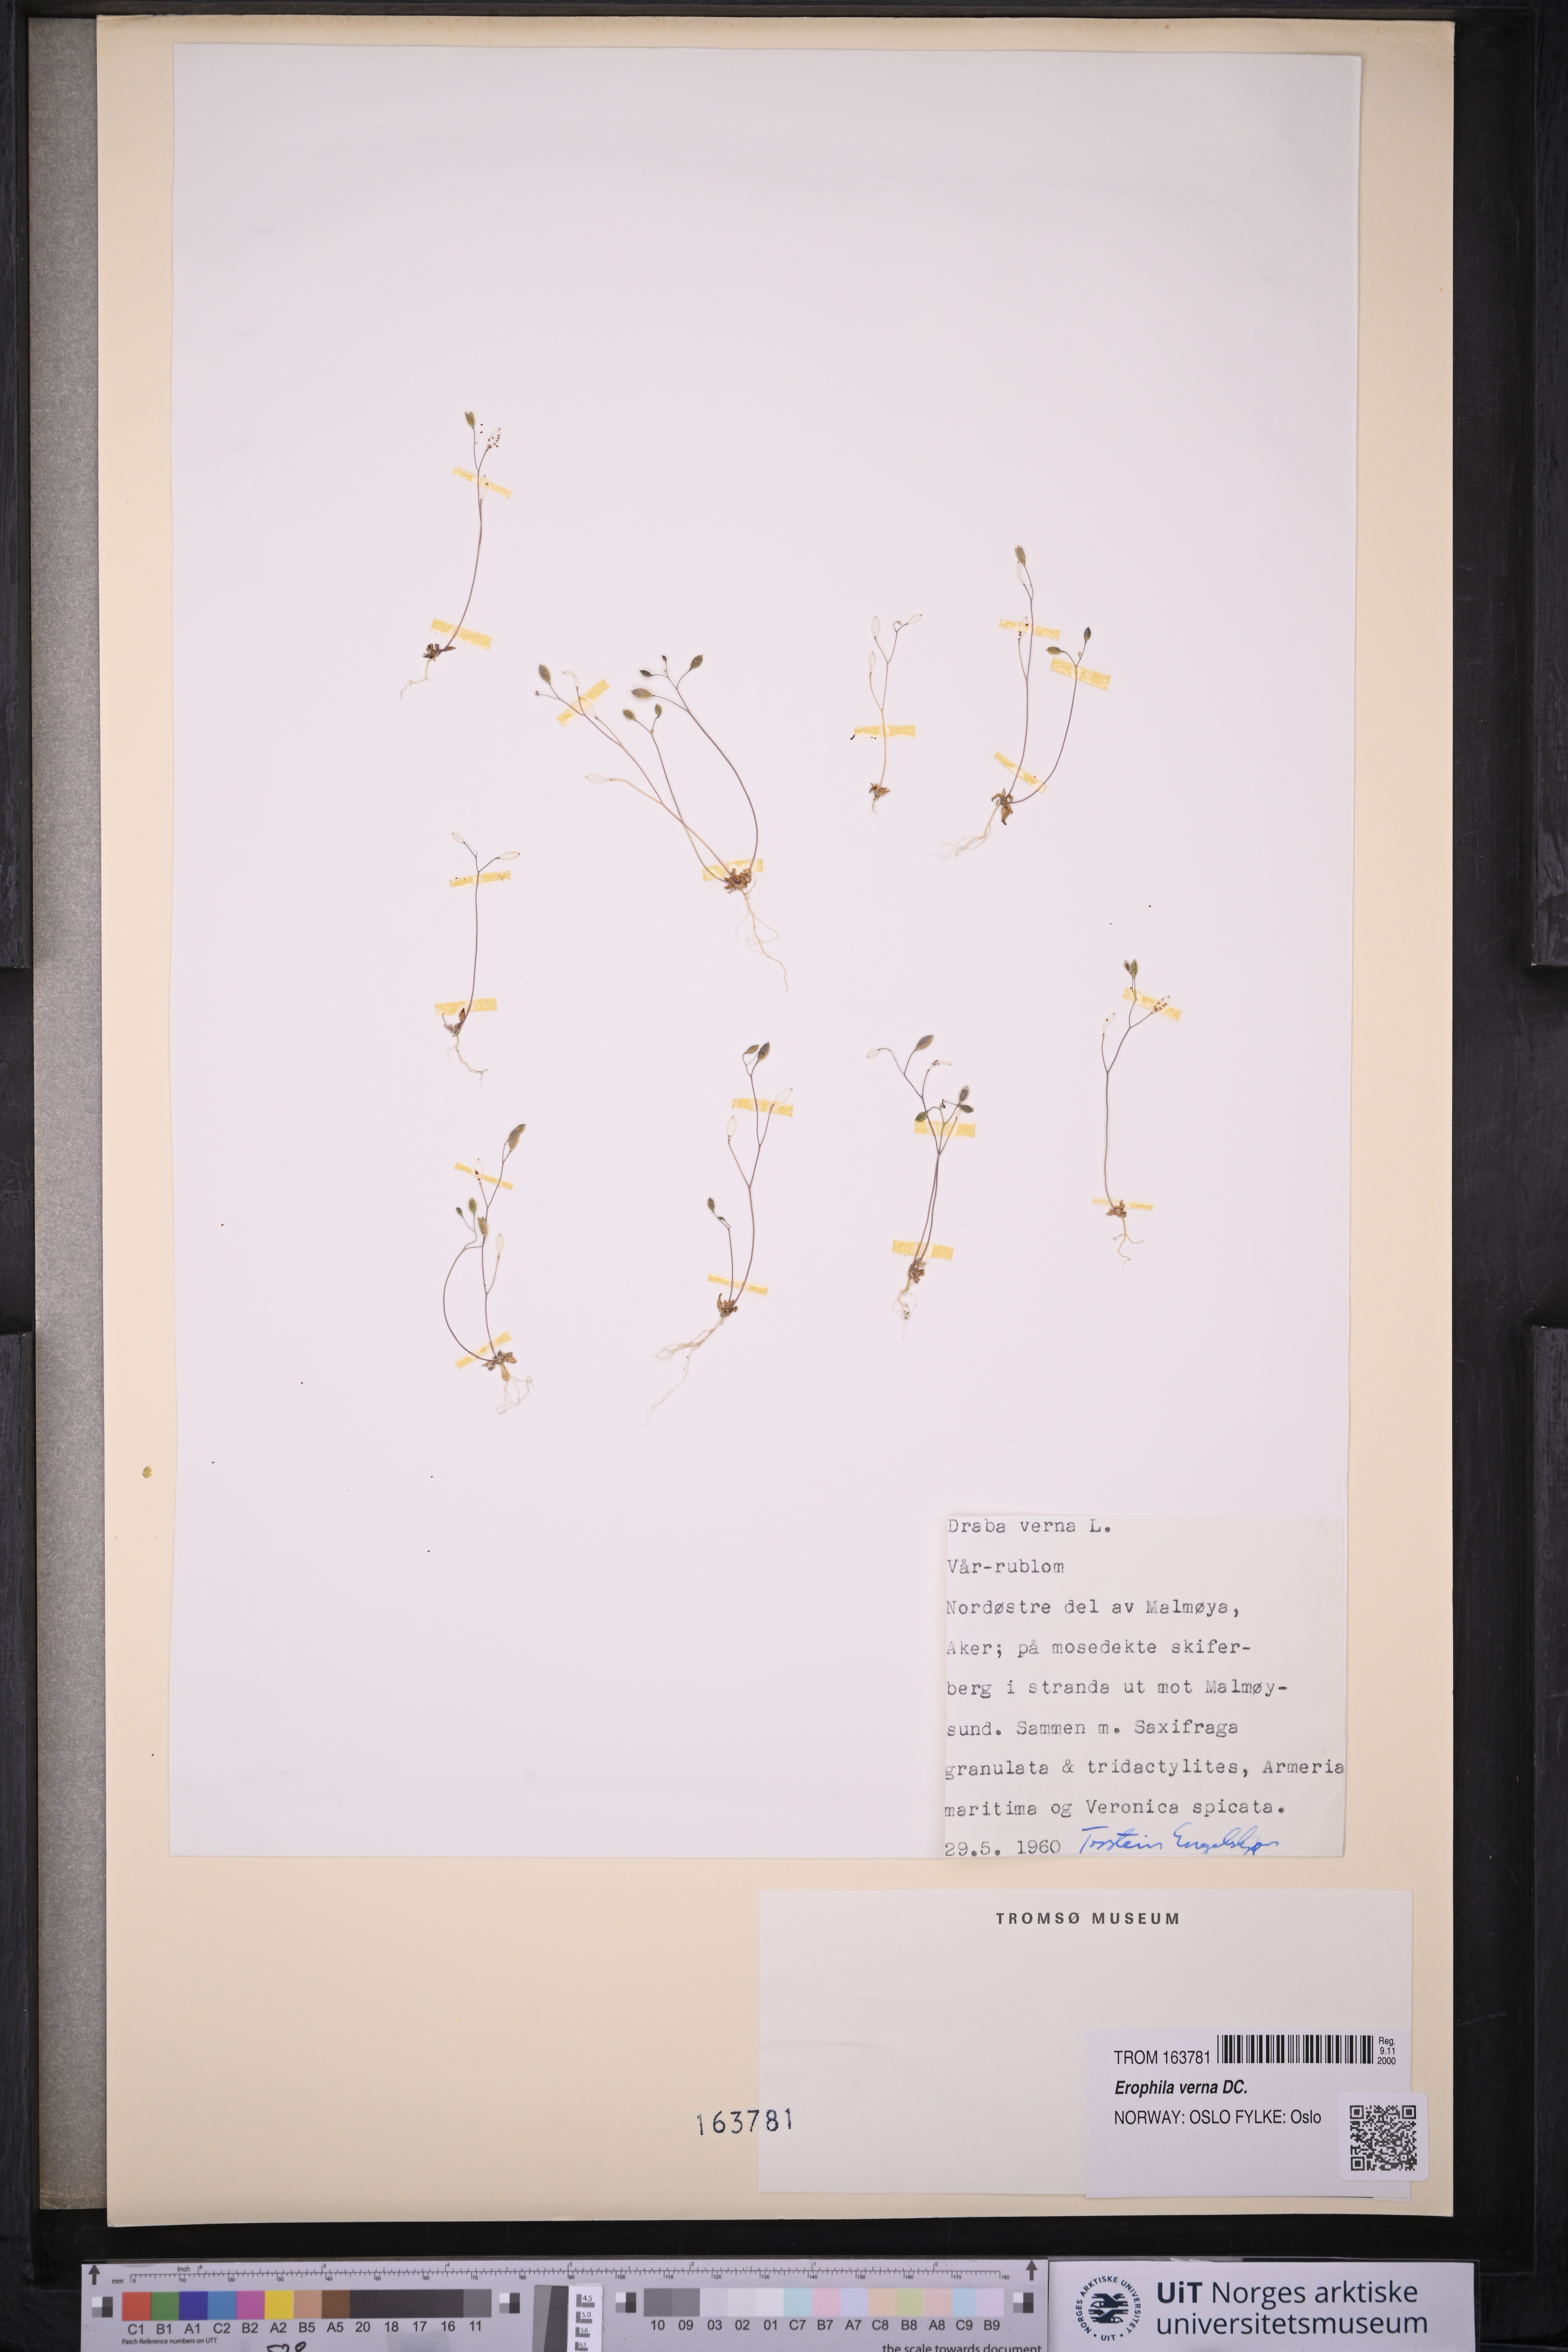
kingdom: Plantae
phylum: Tracheophyta
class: Magnoliopsida
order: Brassicales
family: Brassicaceae
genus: Draba
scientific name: Draba verna
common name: Spring draba
